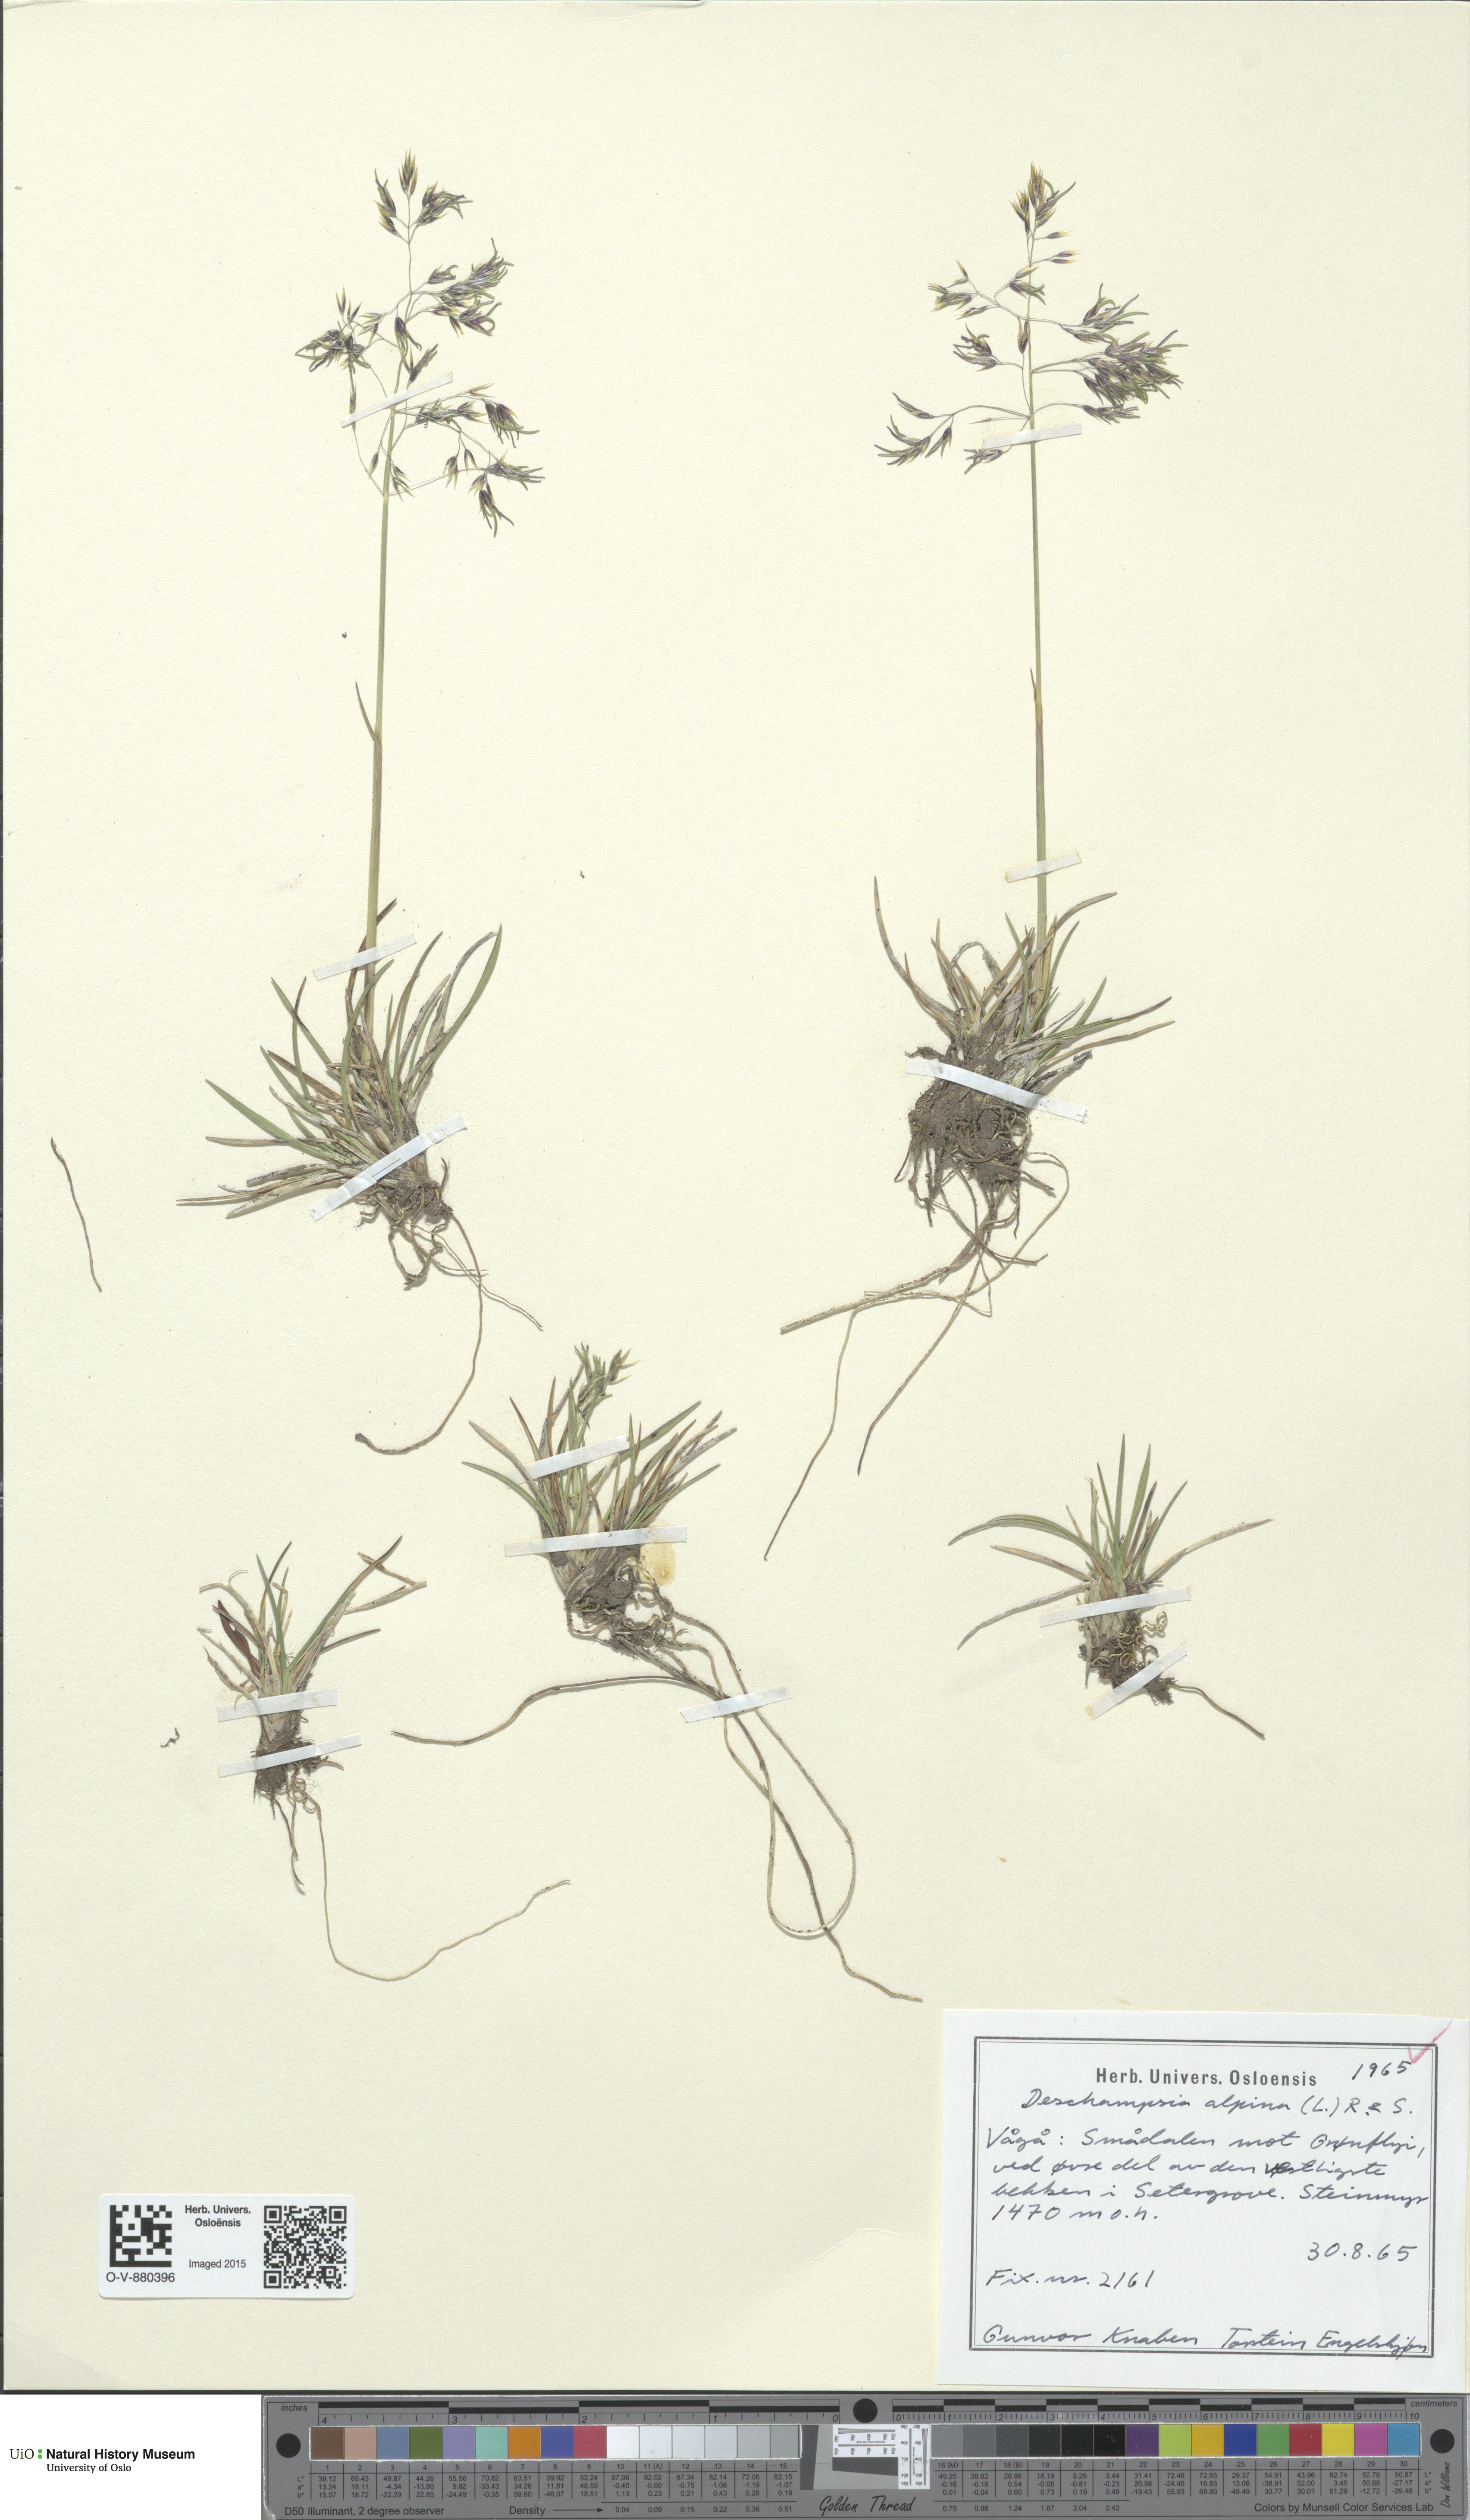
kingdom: Plantae
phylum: Tracheophyta
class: Liliopsida
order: Poales
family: Poaceae
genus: Deschampsia
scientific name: Deschampsia cespitosa
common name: Tufted hair-grass
